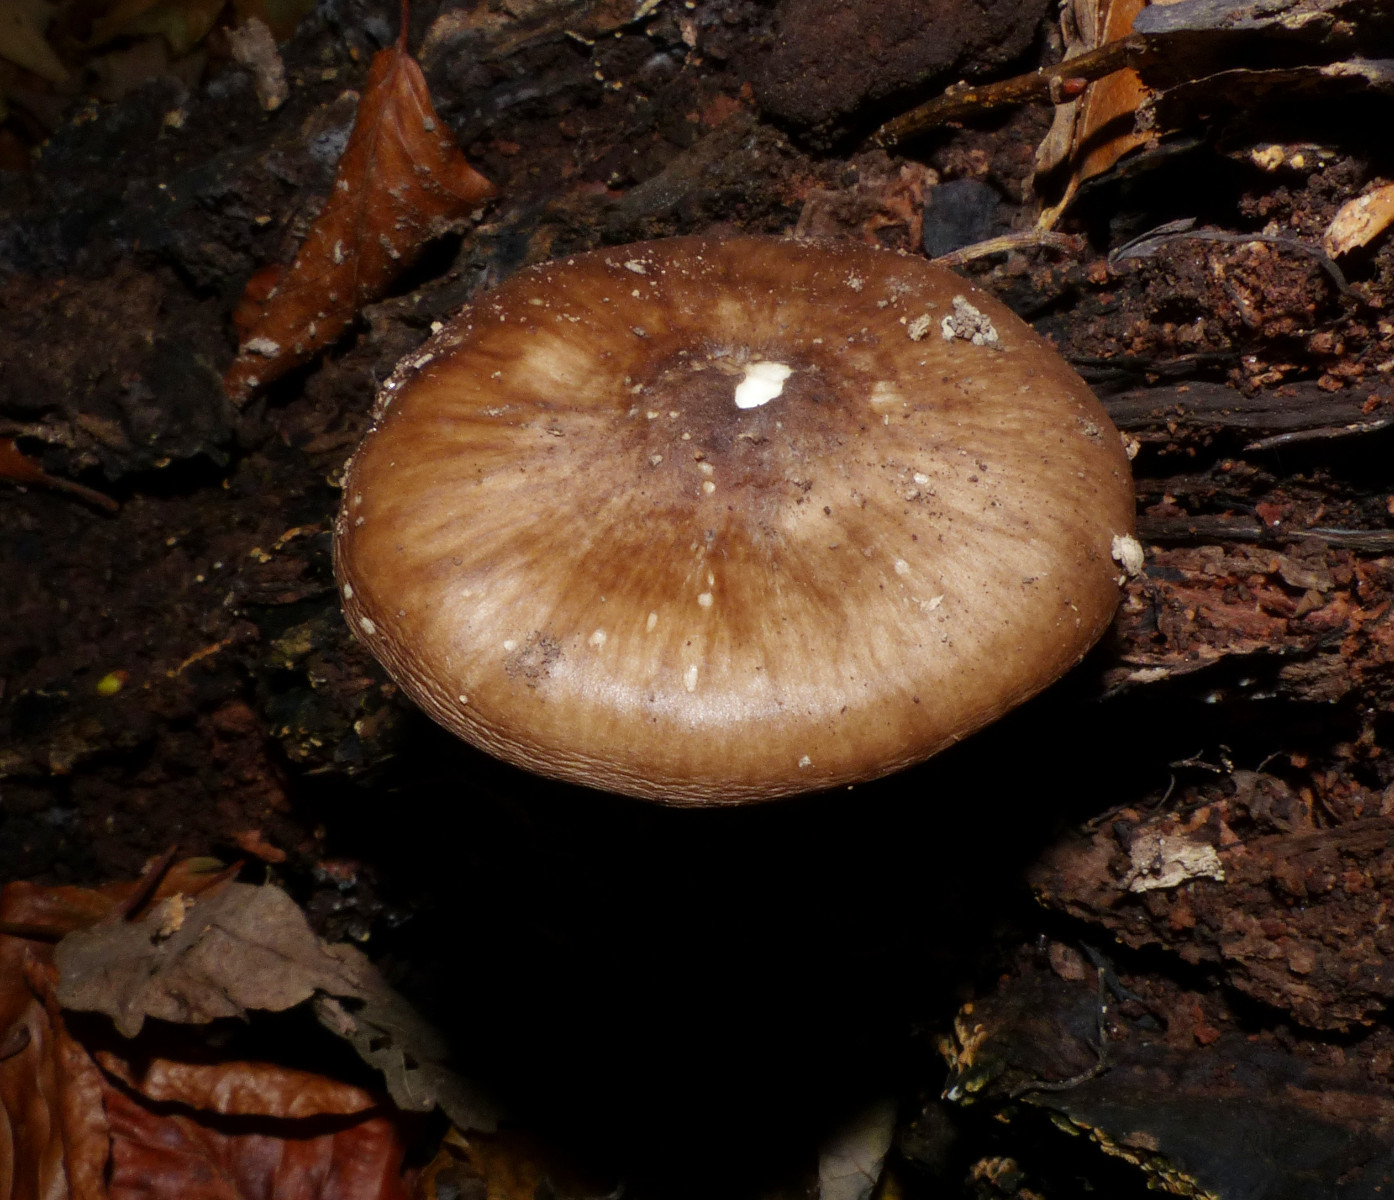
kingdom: Fungi
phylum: Basidiomycota
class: Agaricomycetes
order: Agaricales
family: Pluteaceae
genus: Pluteus
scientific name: Pluteus cervinus
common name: sodfarvet skærmhat
